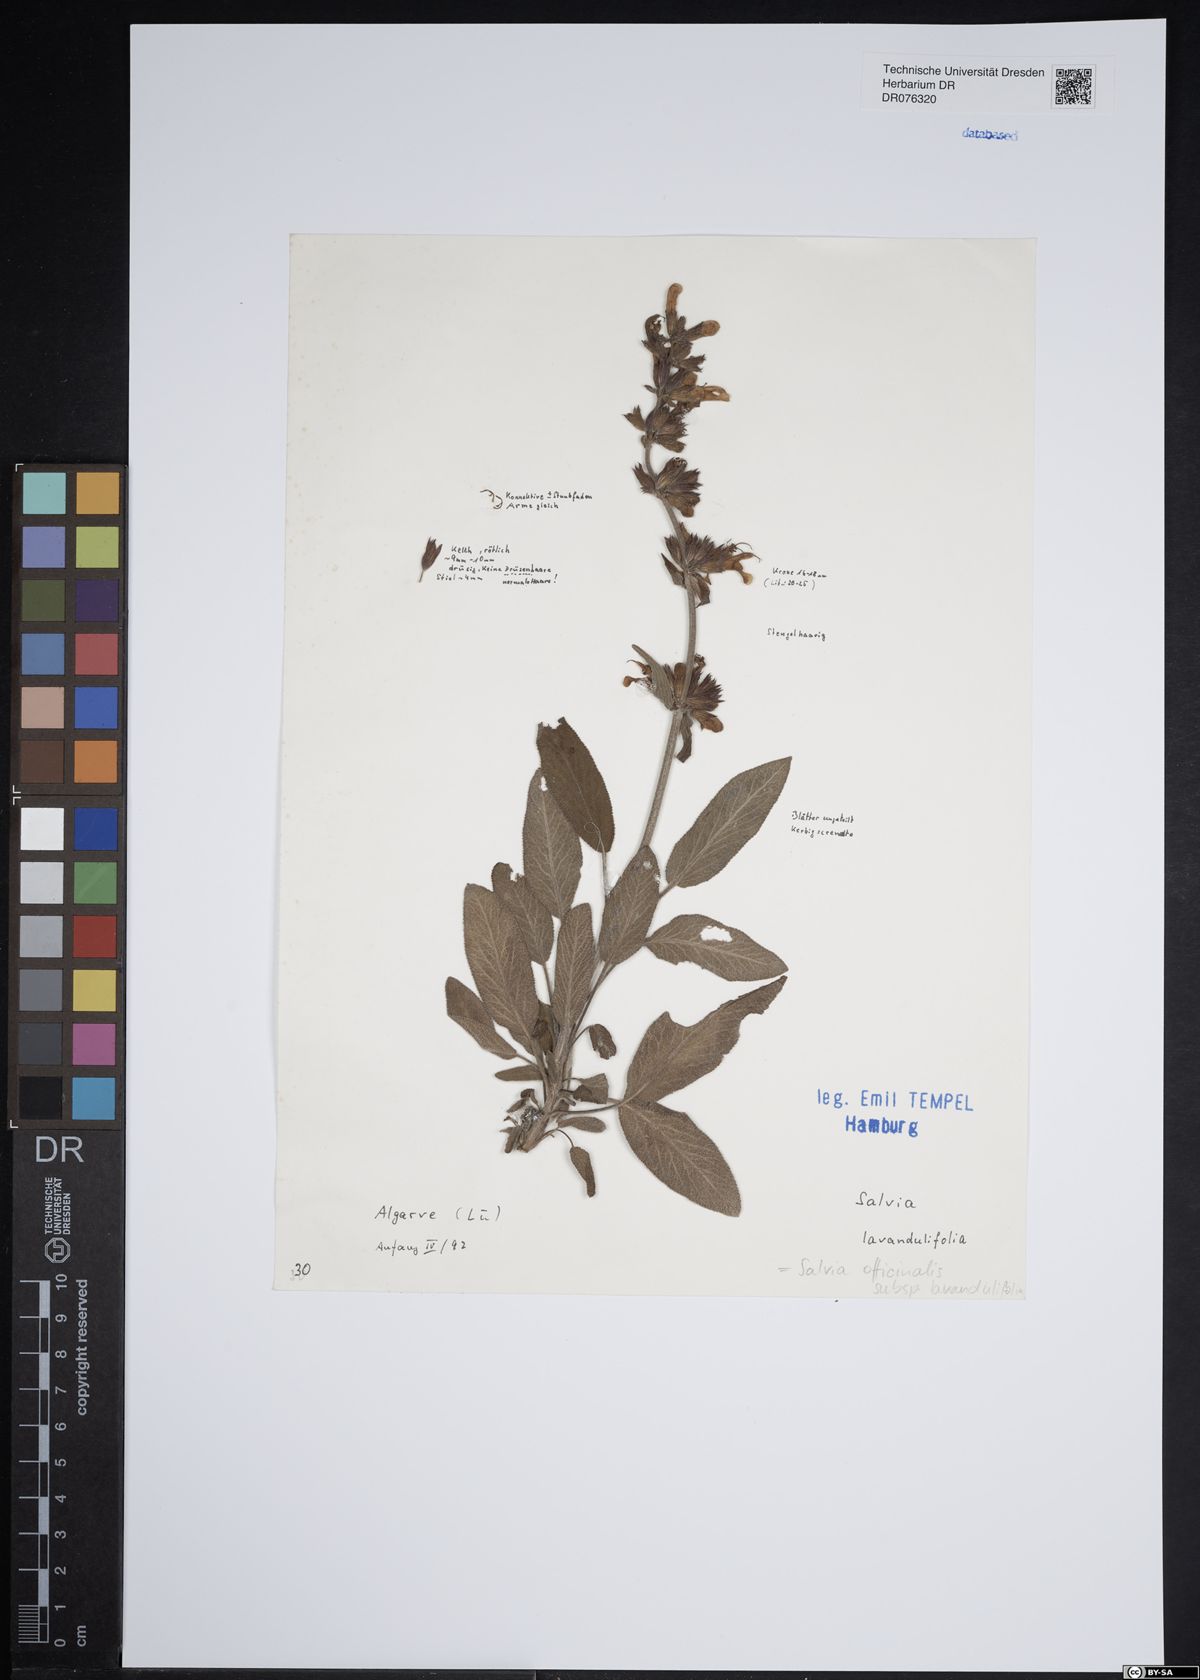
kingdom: Plantae
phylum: Tracheophyta
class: Magnoliopsida
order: Lamiales
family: Lamiaceae
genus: Salvia
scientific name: Salvia officinalis
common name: Sage
